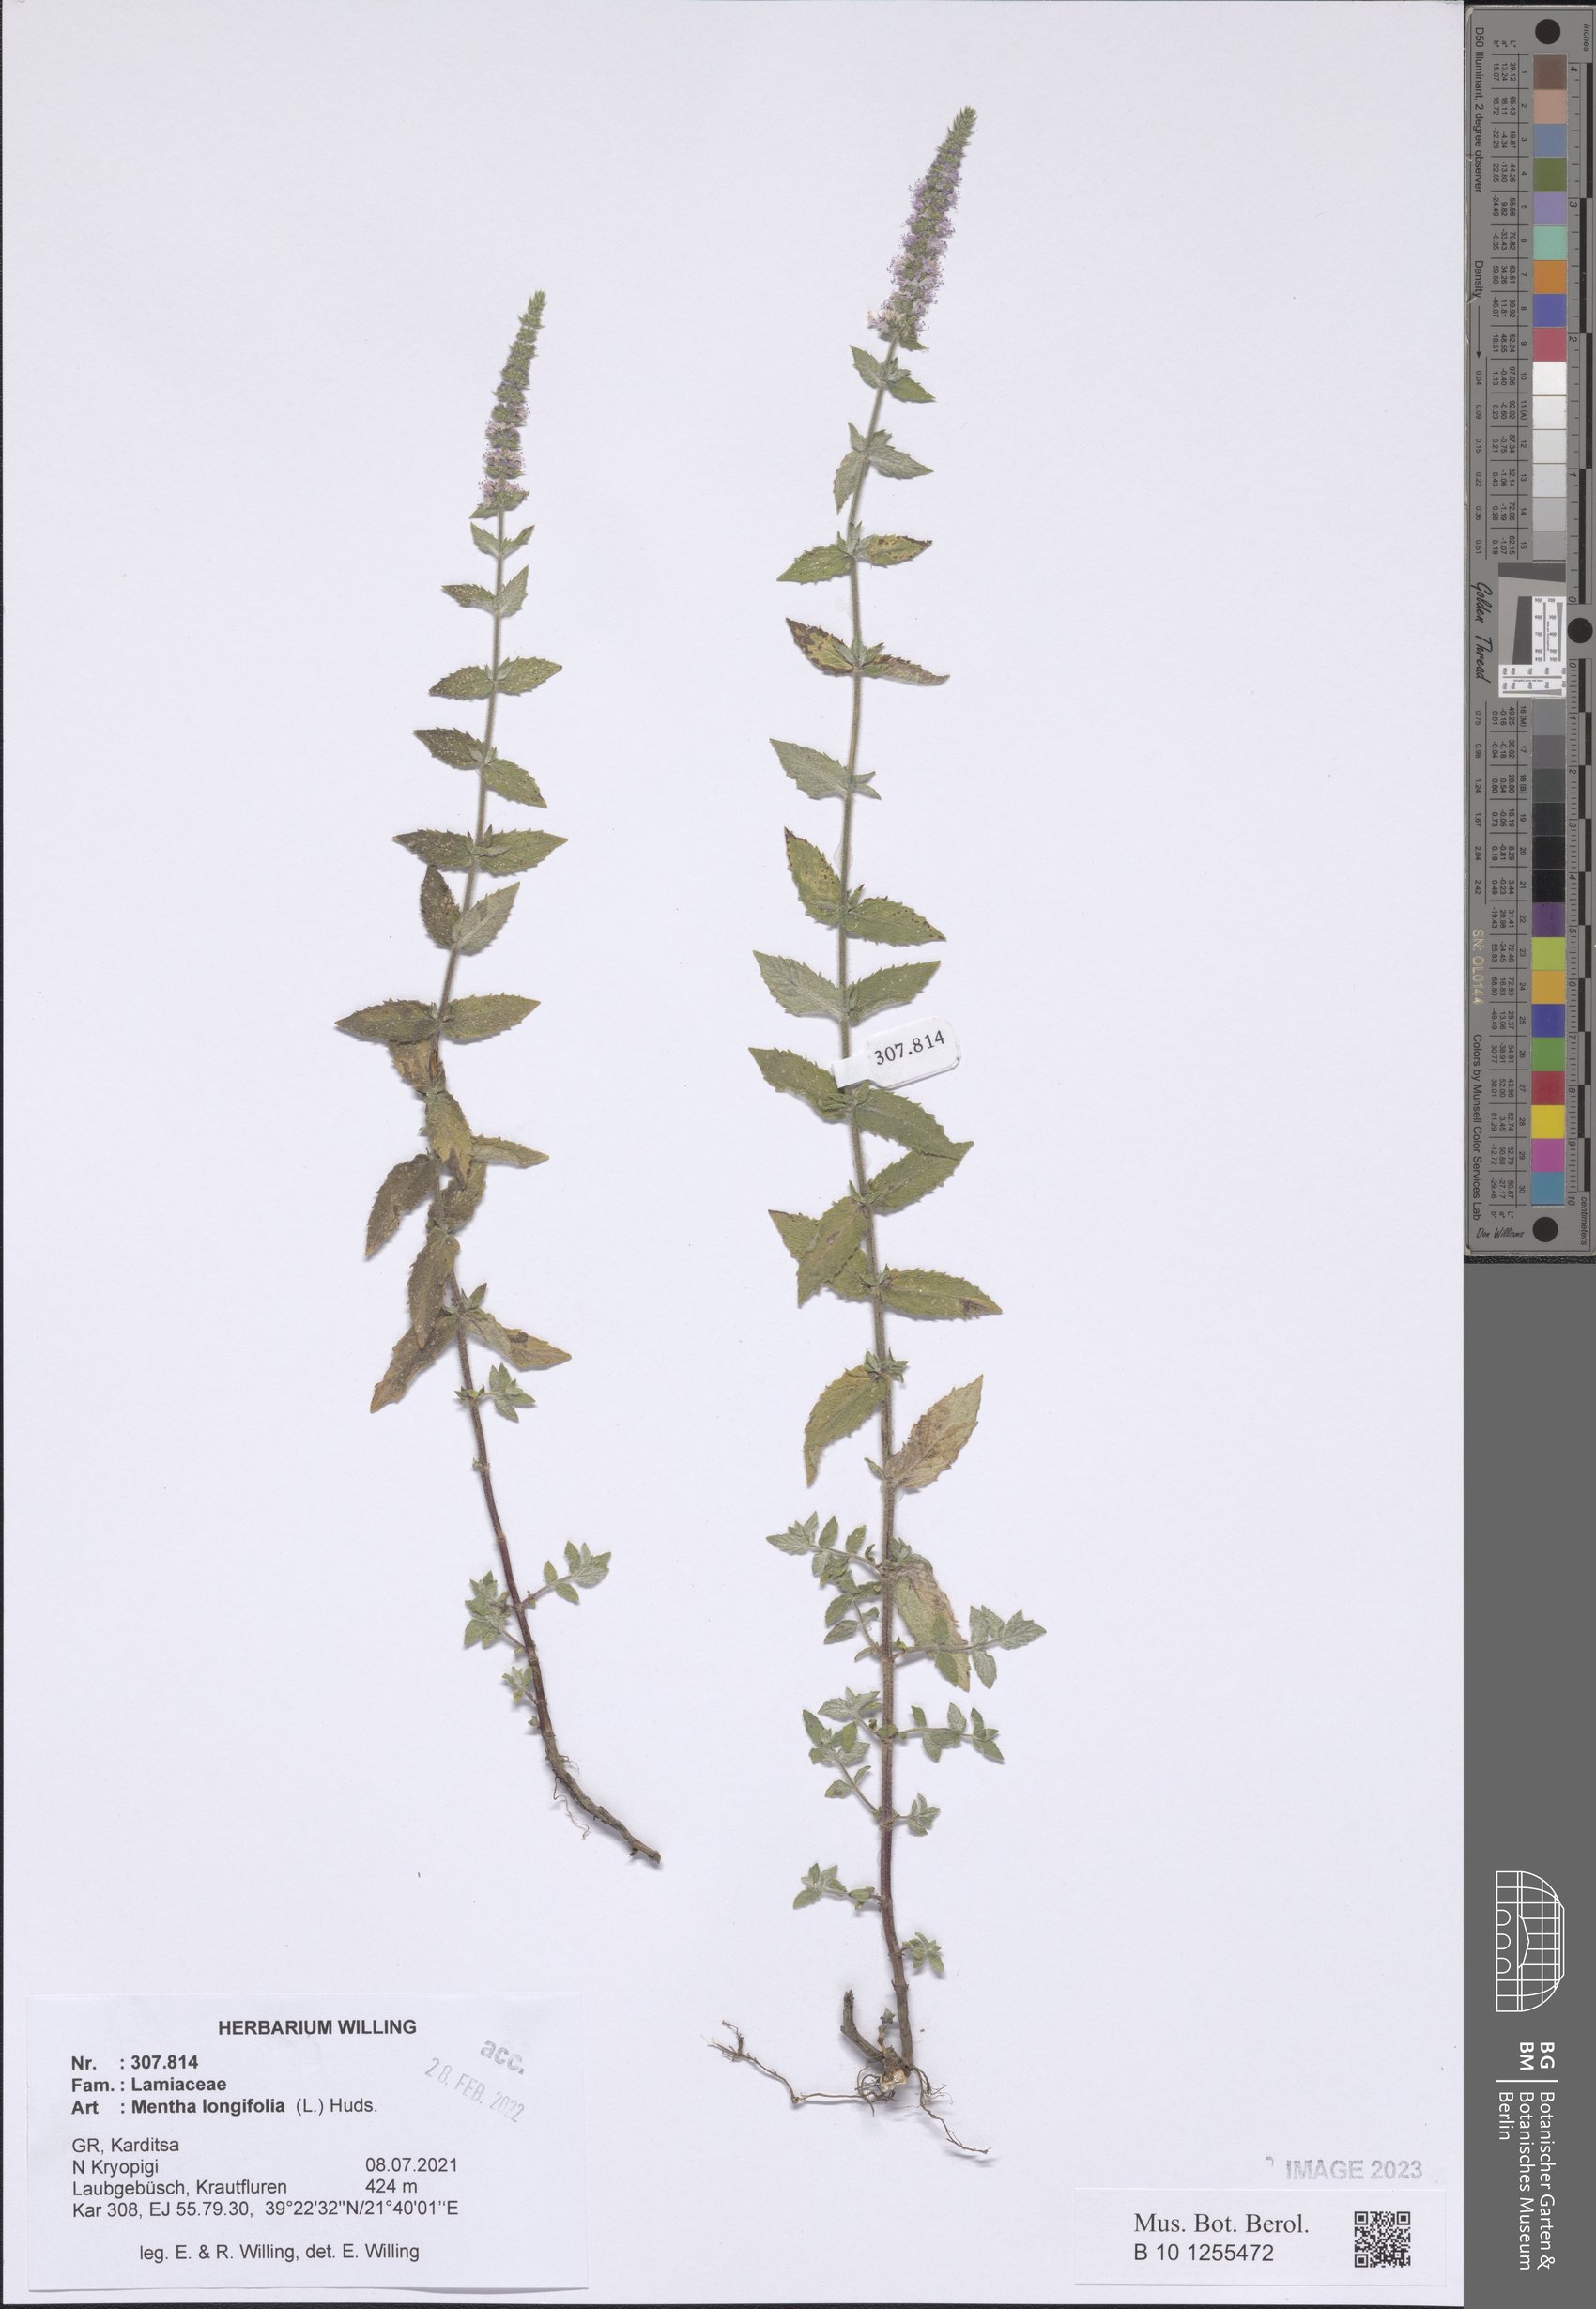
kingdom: Plantae
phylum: Tracheophyta
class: Magnoliopsida
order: Lamiales
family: Lamiaceae
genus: Mentha
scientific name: Mentha longifolia
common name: Horse mint
